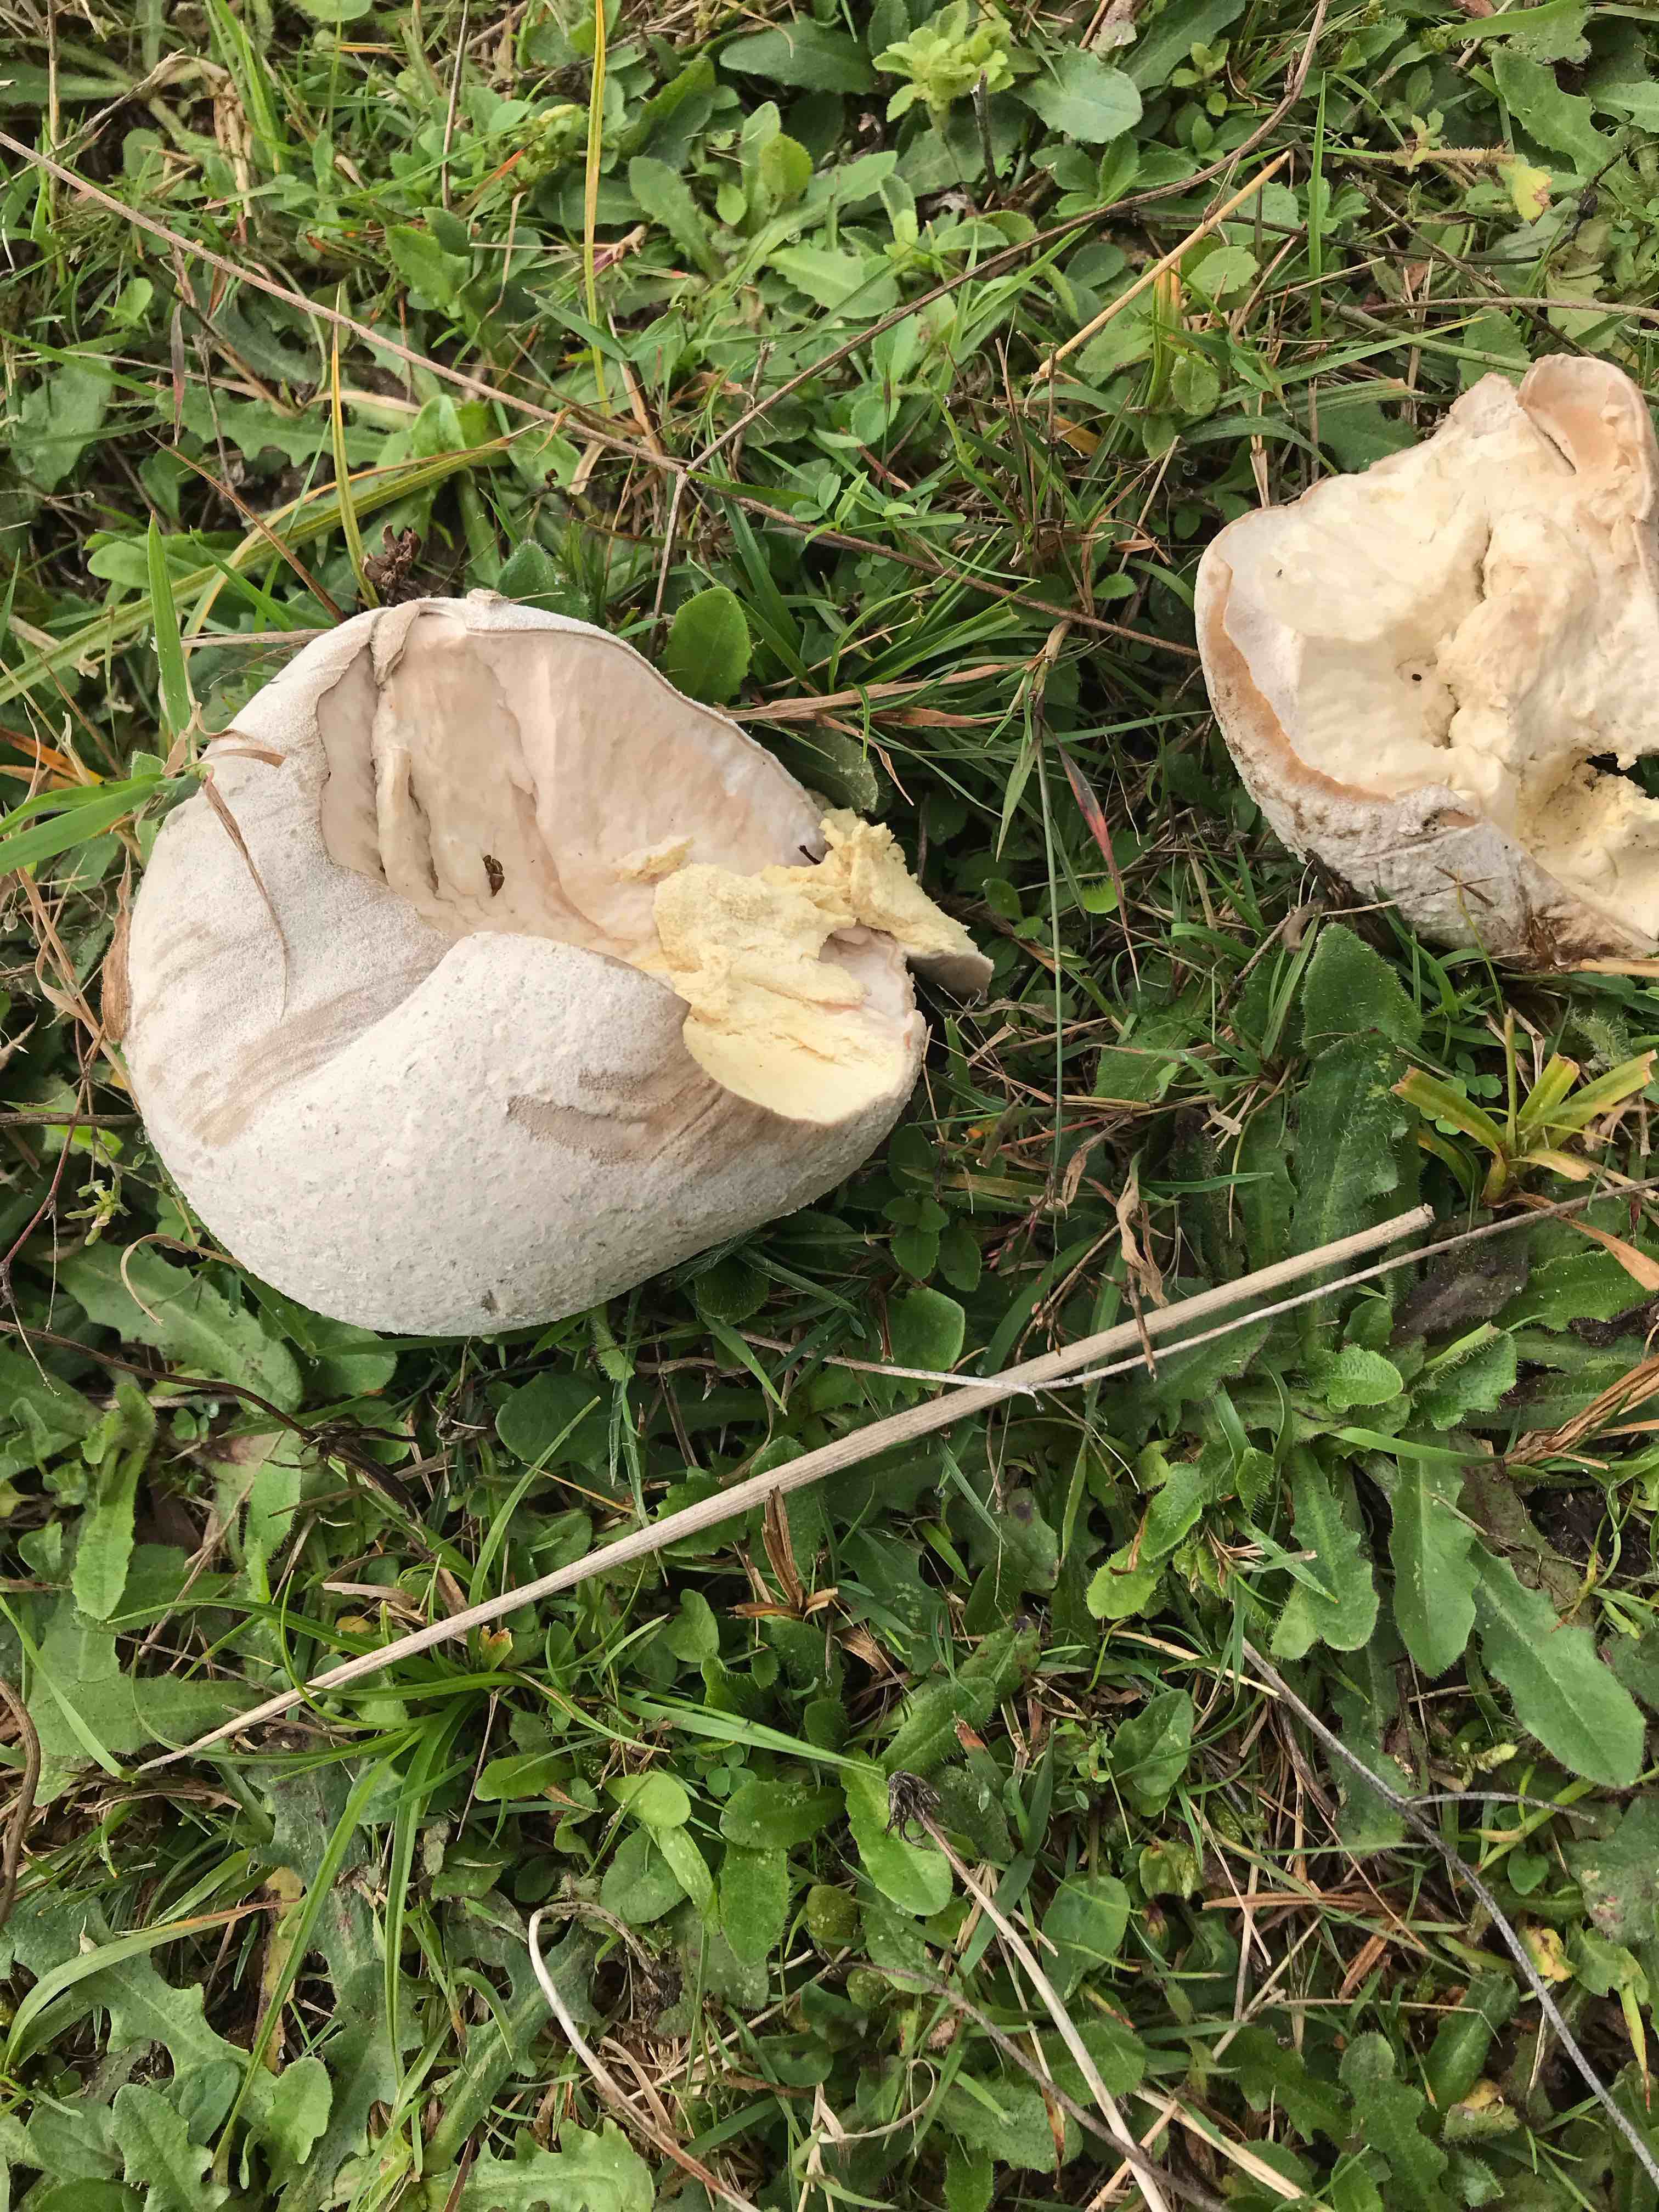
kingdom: Fungi
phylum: Basidiomycota
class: Agaricomycetes
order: Agaricales
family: Lycoperdaceae
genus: Calvatia
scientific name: Calvatia gigantea
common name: kæmpestøvbold
